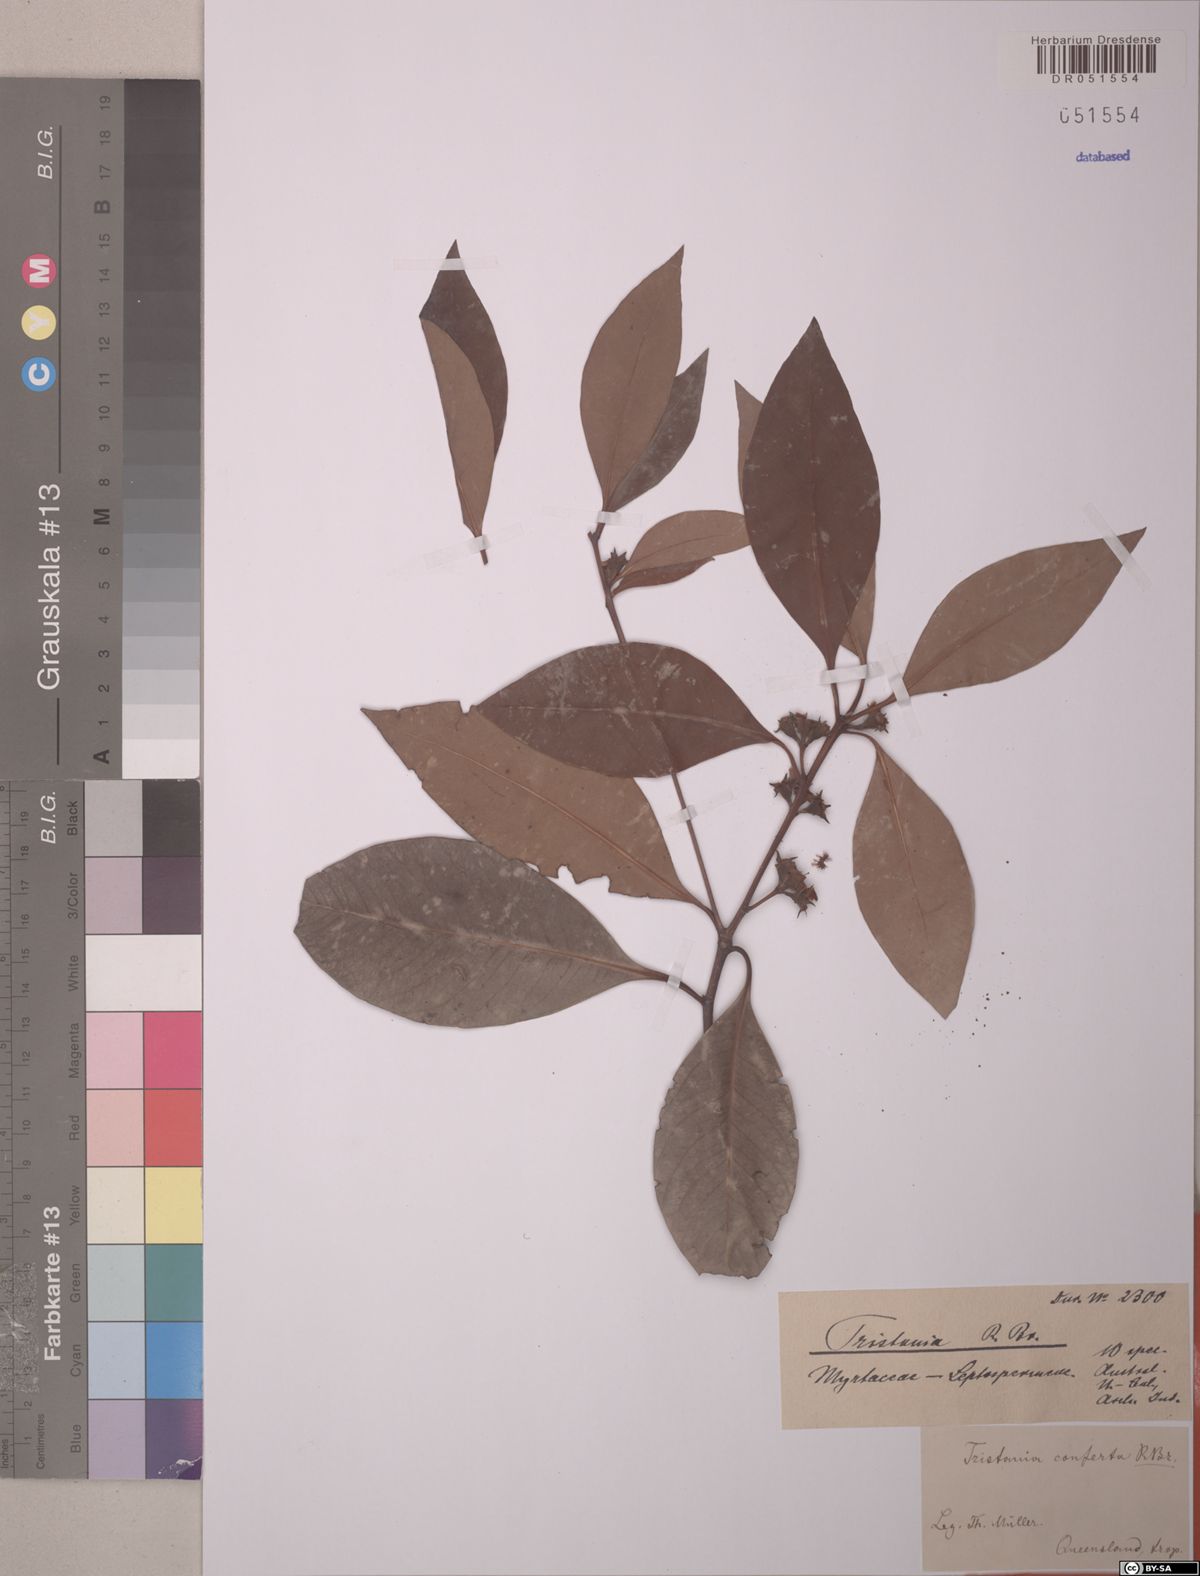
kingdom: Plantae
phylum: Tracheophyta
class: Magnoliopsida
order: Myrtales
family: Myrtaceae
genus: Lophostemon
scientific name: Lophostemon confertus
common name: Brisbane box
